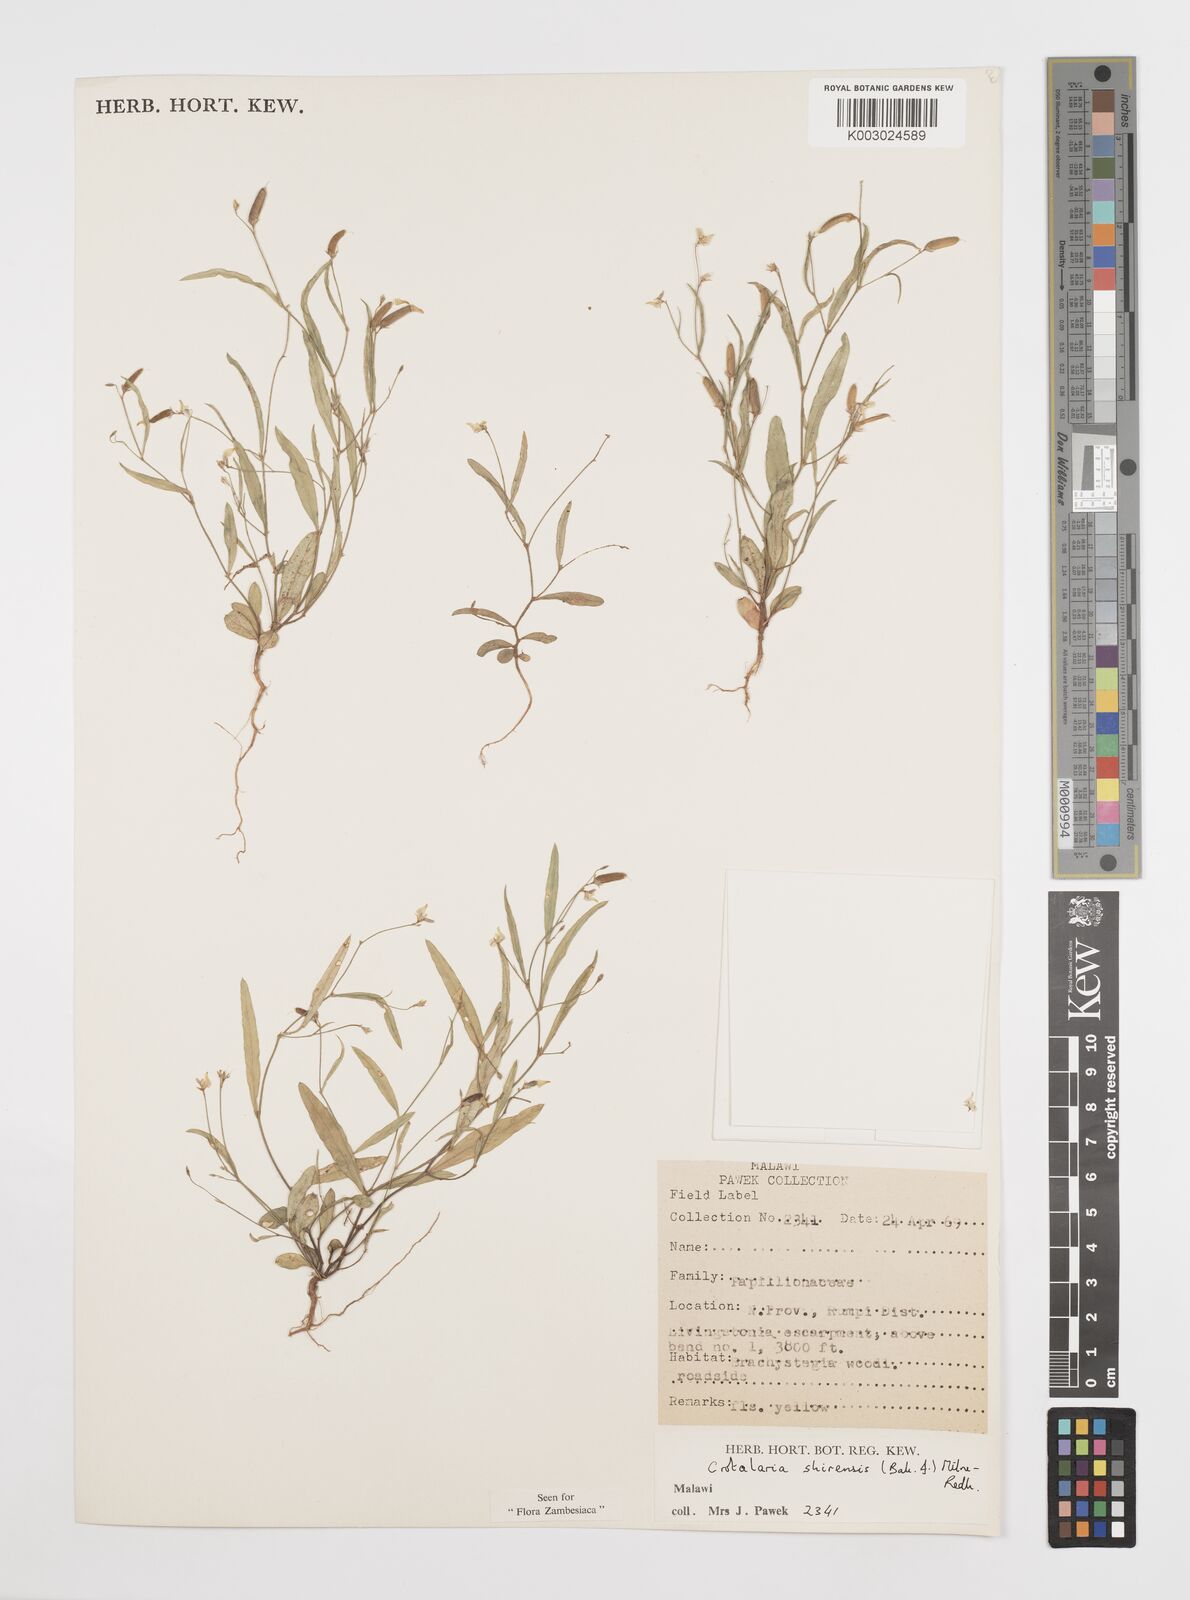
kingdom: Plantae
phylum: Tracheophyta
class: Magnoliopsida
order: Fabales
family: Fabaceae
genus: Crotalaria
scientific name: Crotalaria shirensis
